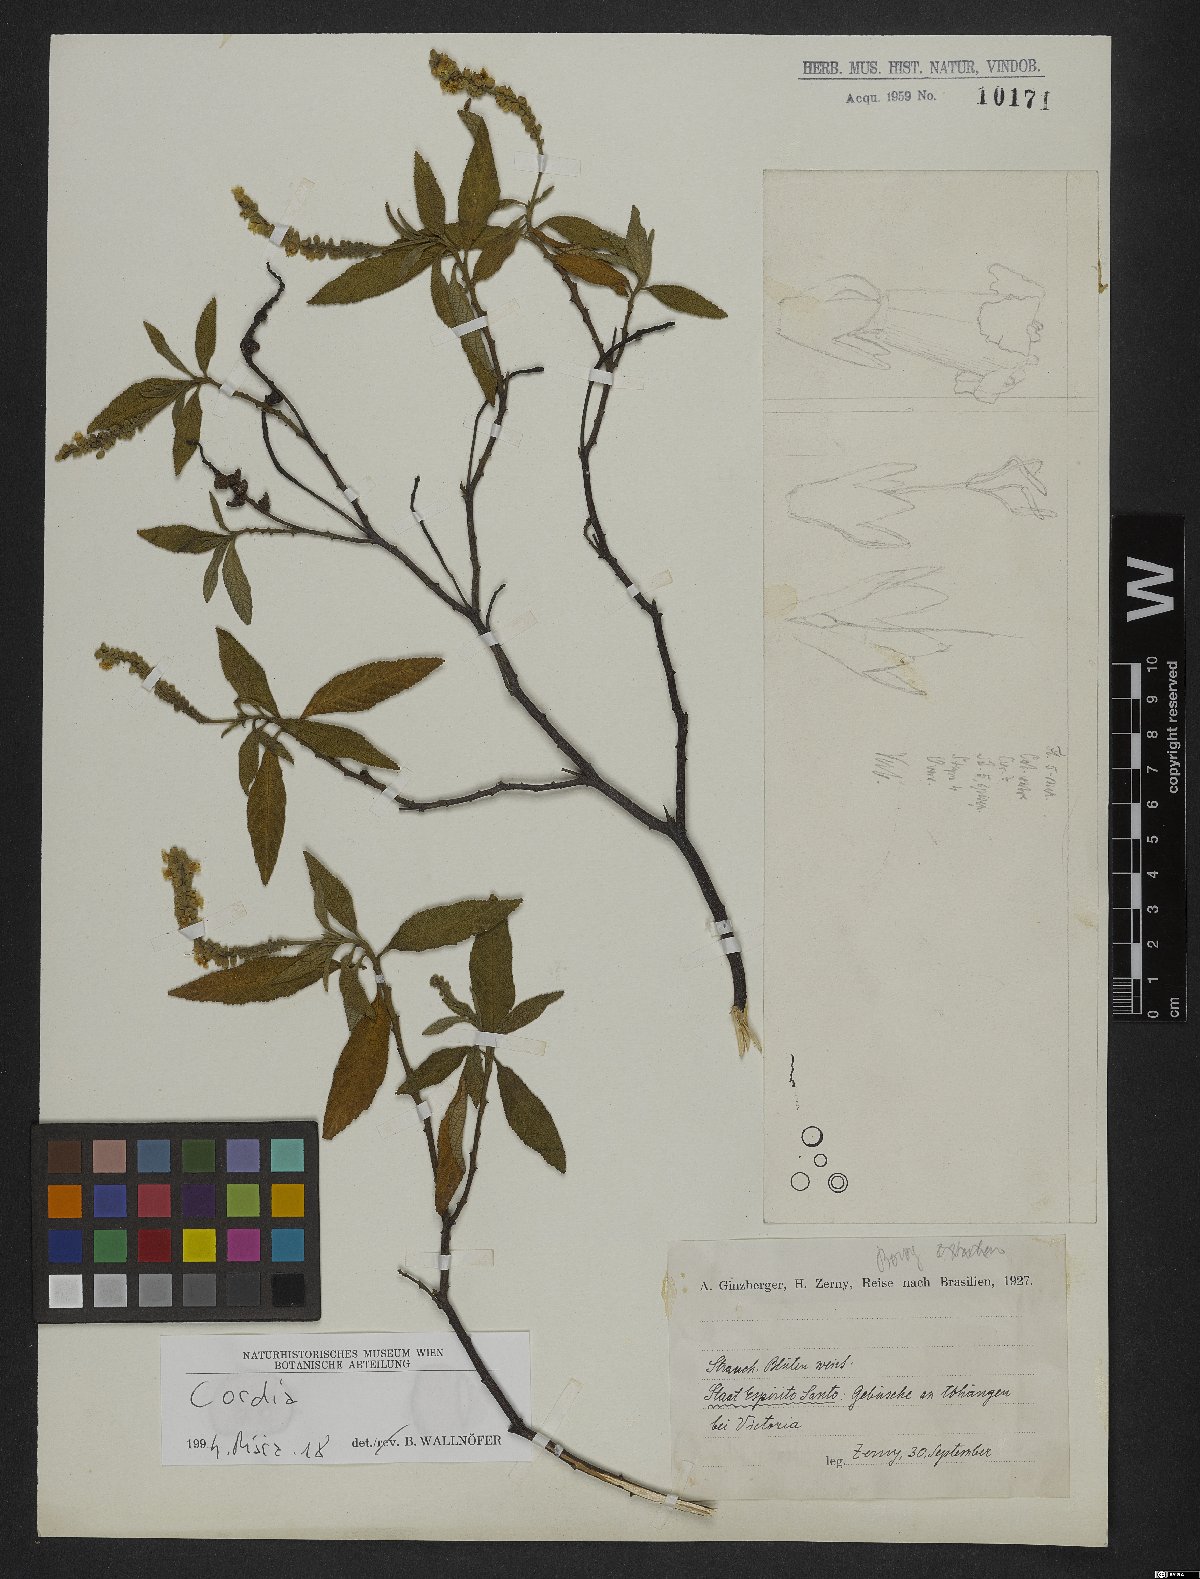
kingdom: Plantae
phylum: Tracheophyta
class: Magnoliopsida
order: Boraginales
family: Cordiaceae
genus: Cordia
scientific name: Cordia
